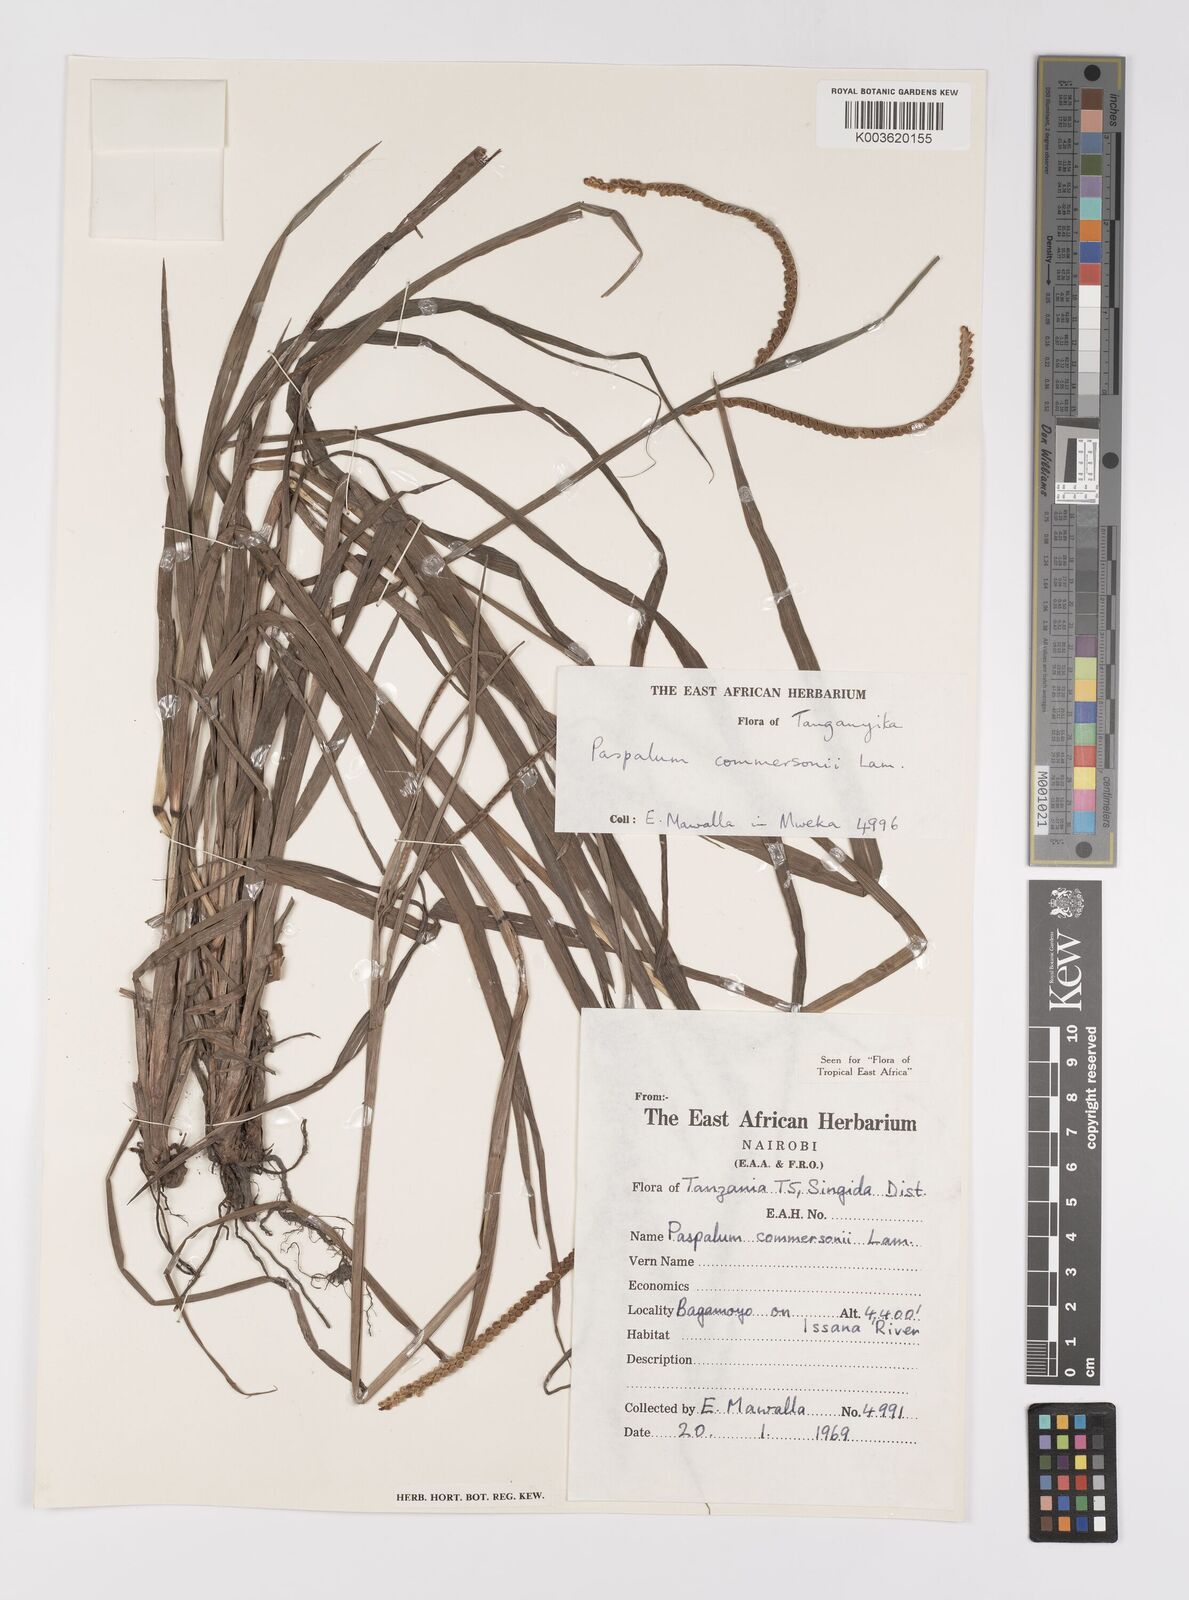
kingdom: Plantae
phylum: Tracheophyta
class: Liliopsida
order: Poales
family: Poaceae
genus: Paspalum
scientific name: Paspalum scrobiculatum
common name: Kodo millet
